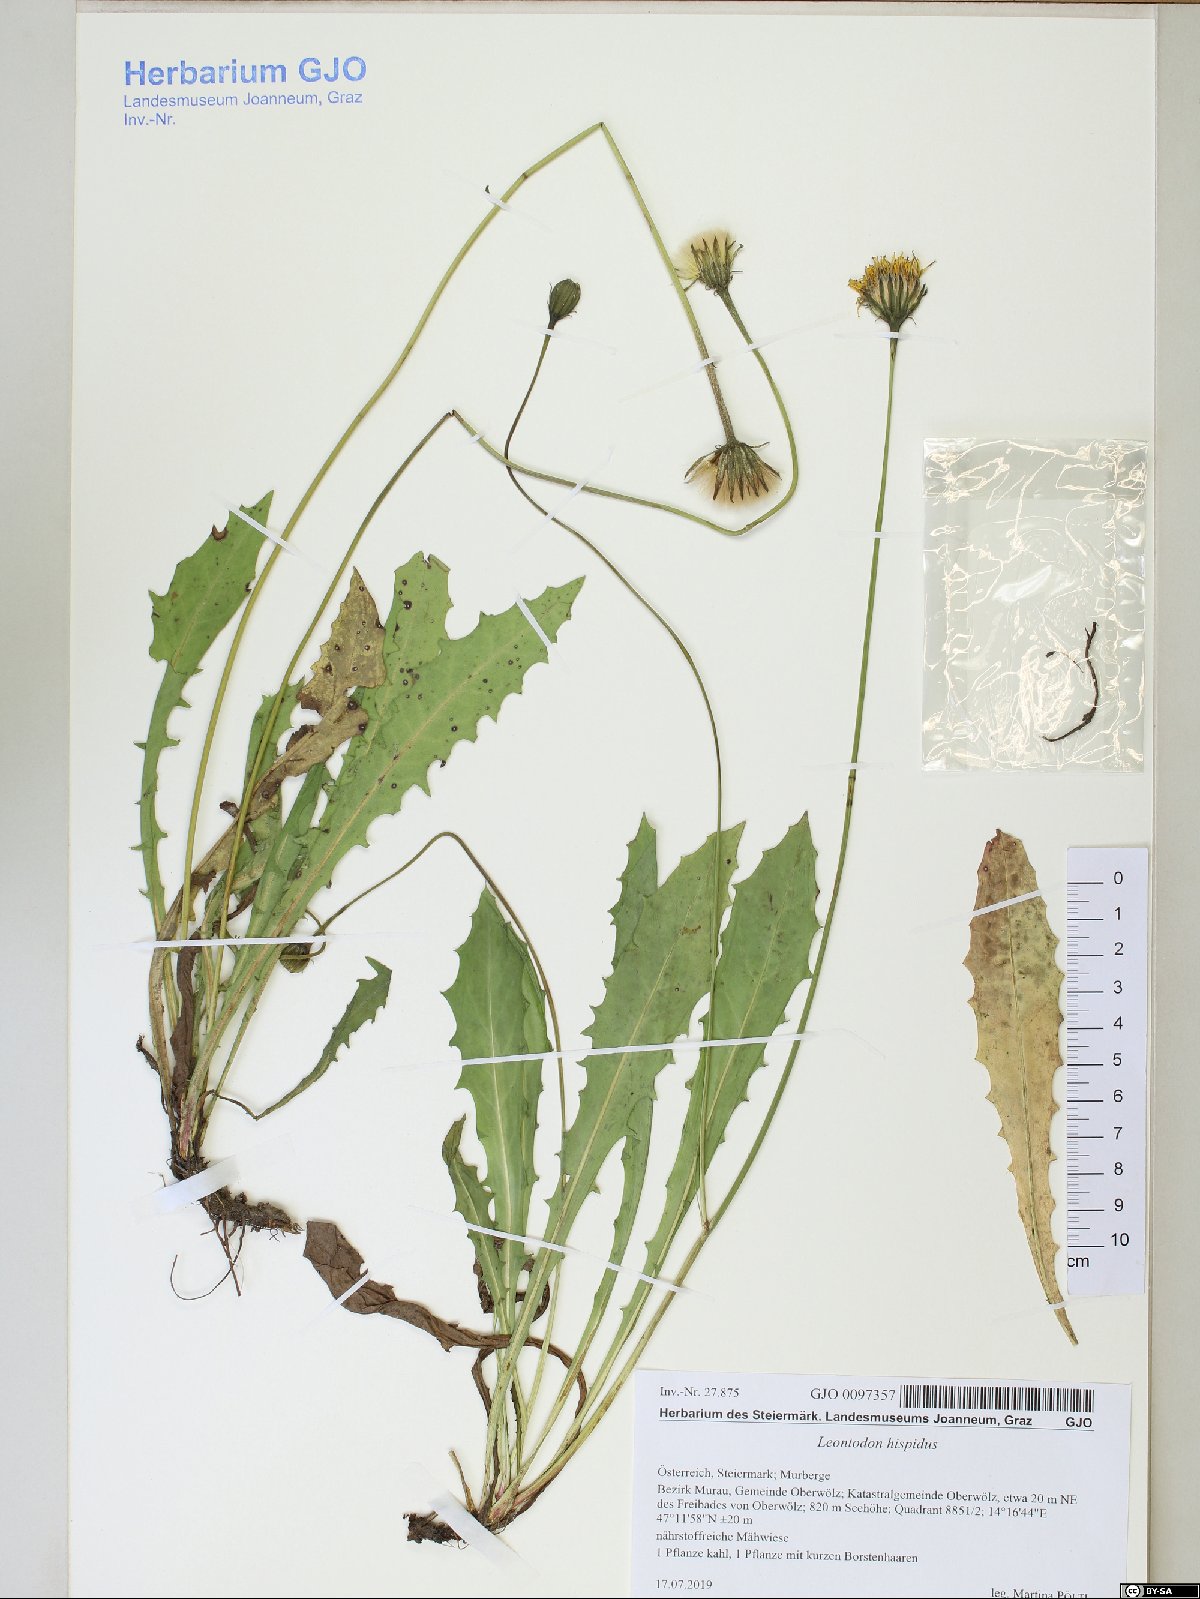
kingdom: Plantae
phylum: Tracheophyta
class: Magnoliopsida
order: Asterales
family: Asteraceae
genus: Leontodon
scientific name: Leontodon hispidus
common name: Rough hawkbit
